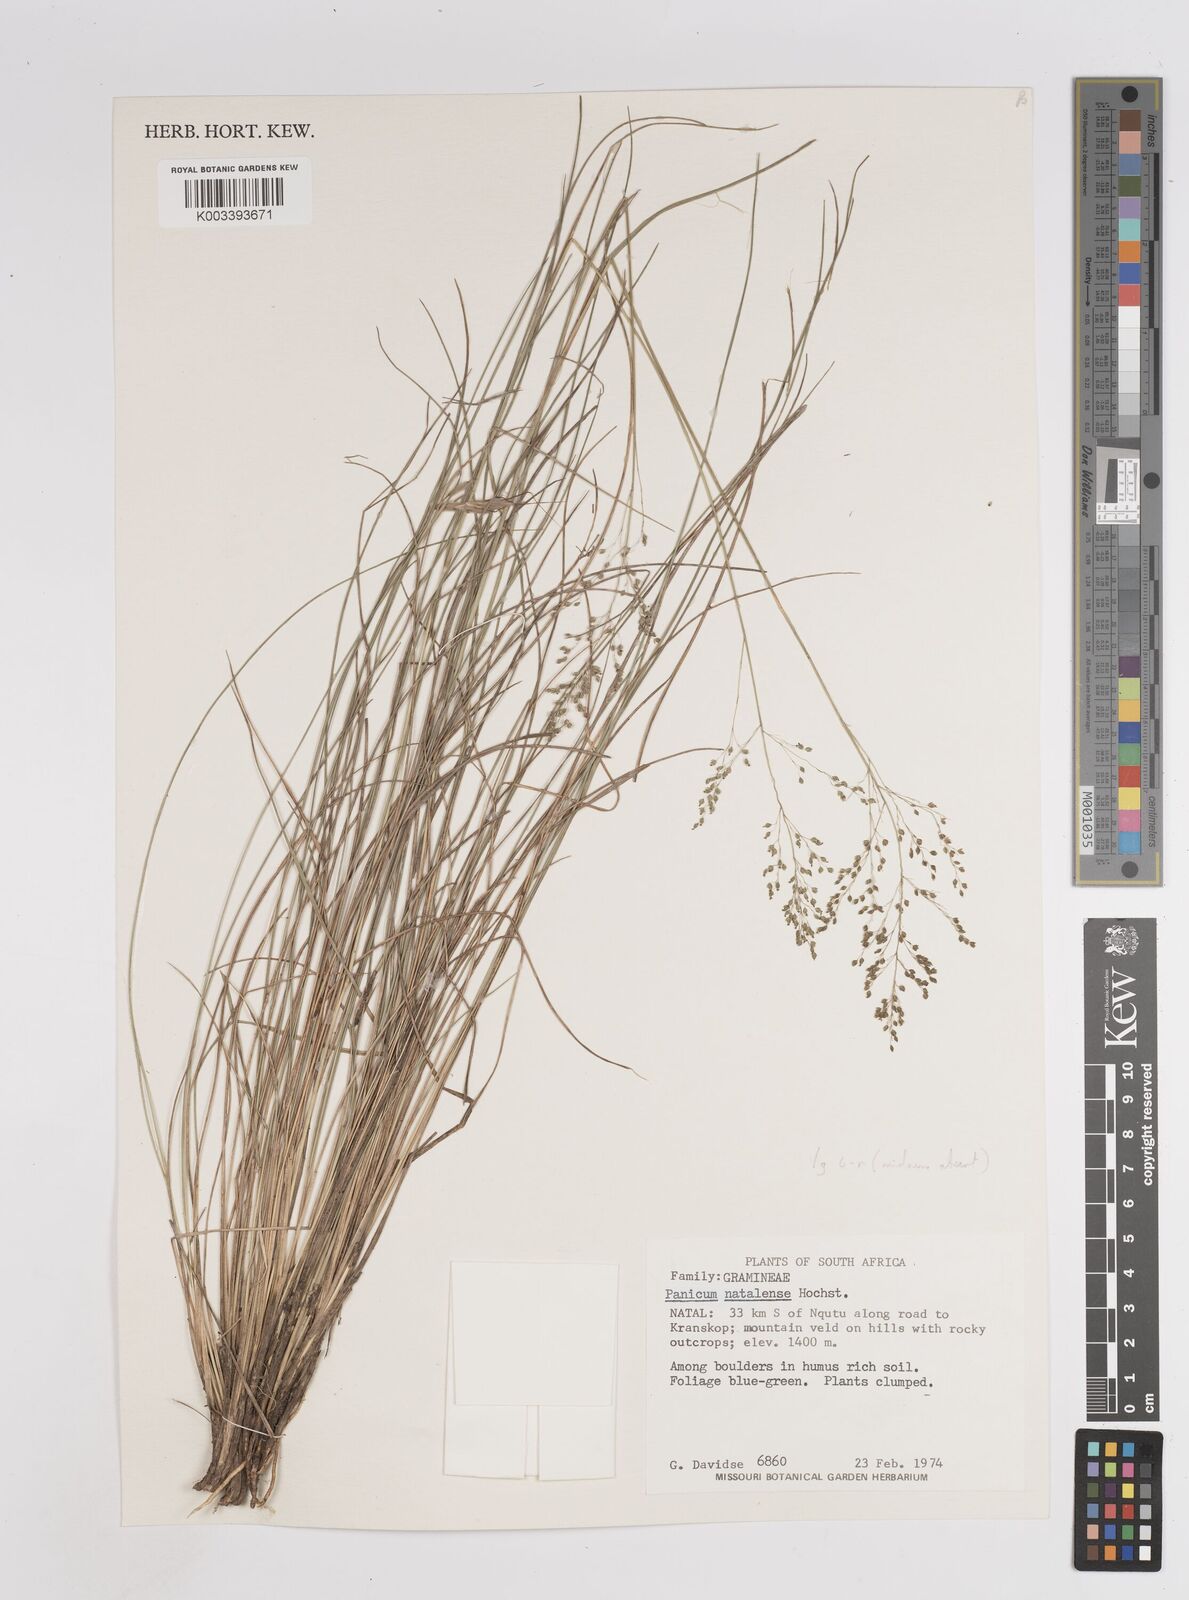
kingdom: Plantae
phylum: Tracheophyta
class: Liliopsida
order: Poales
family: Poaceae
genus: Trichanthecium
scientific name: Trichanthecium natalense
